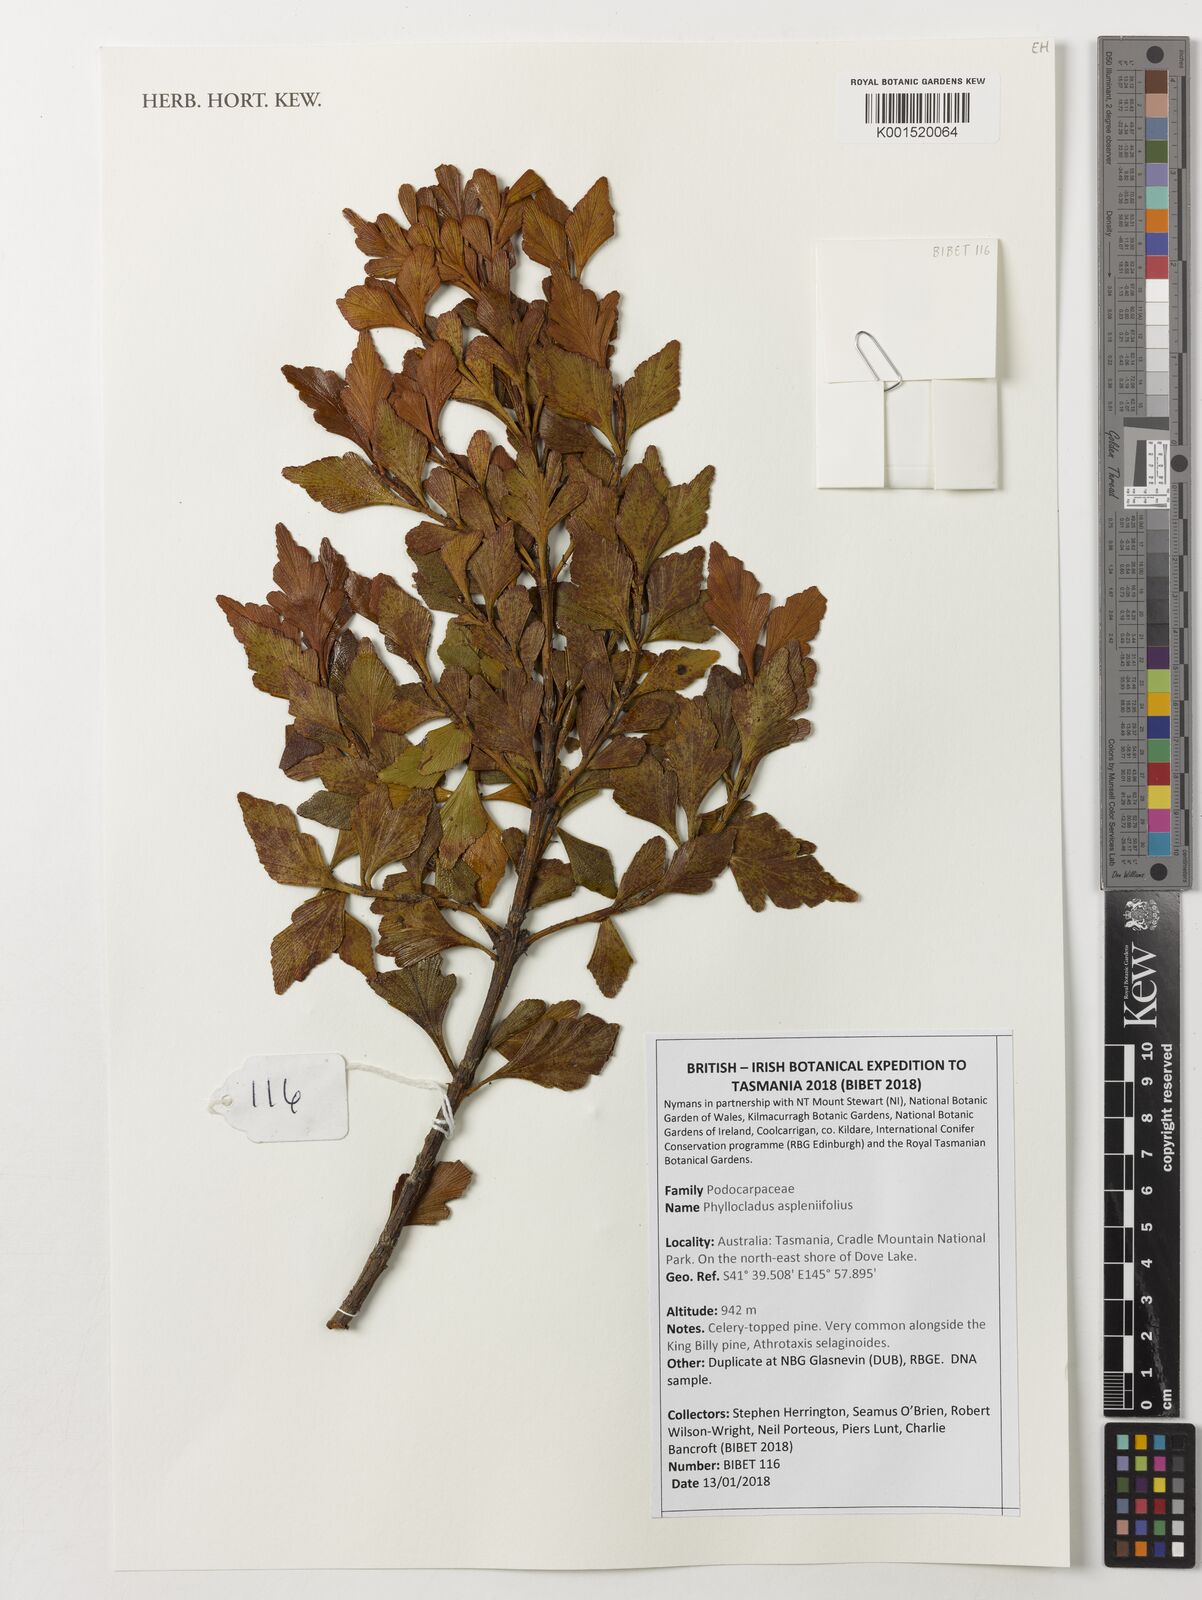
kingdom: Plantae
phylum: Tracheophyta
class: Pinopsida
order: Pinales
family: Phyllocladaceae
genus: Phyllocladus
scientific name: Phyllocladus aspleniifolius
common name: Celery-top pine
